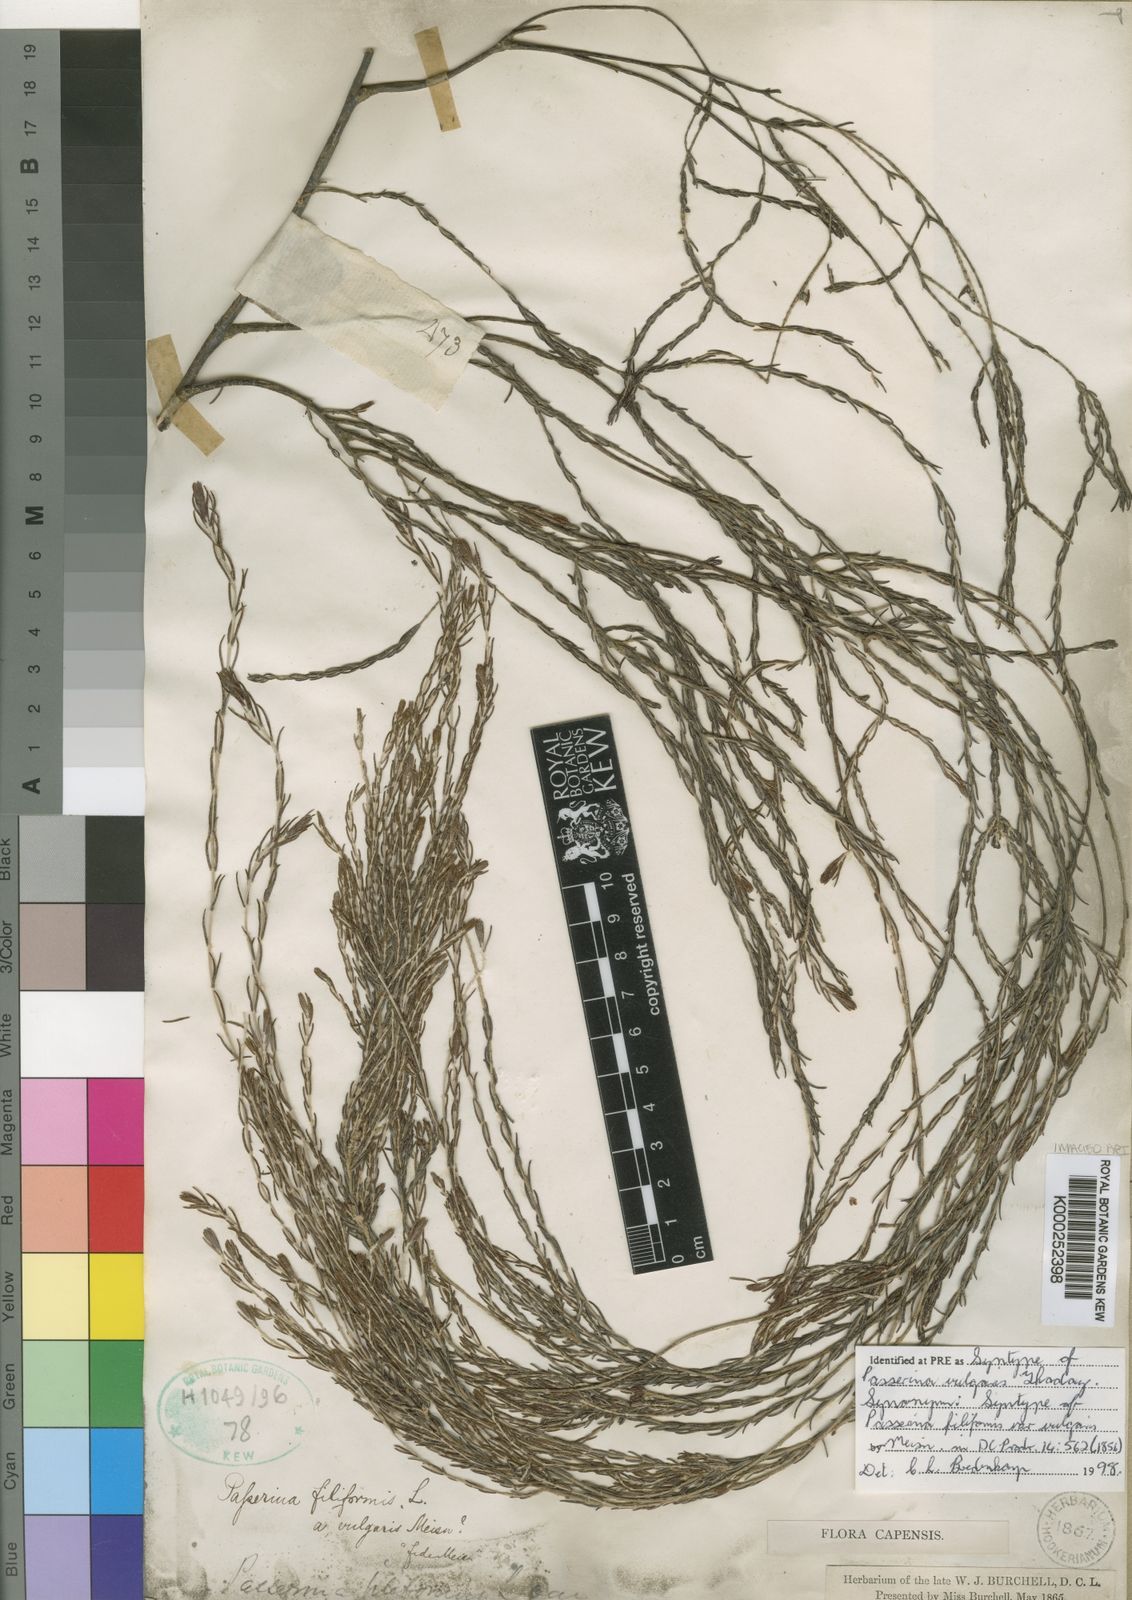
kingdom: Plantae
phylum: Tracheophyta
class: Magnoliopsida
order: Malvales
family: Thymelaeaceae
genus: Passerina
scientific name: Passerina corymbosa
